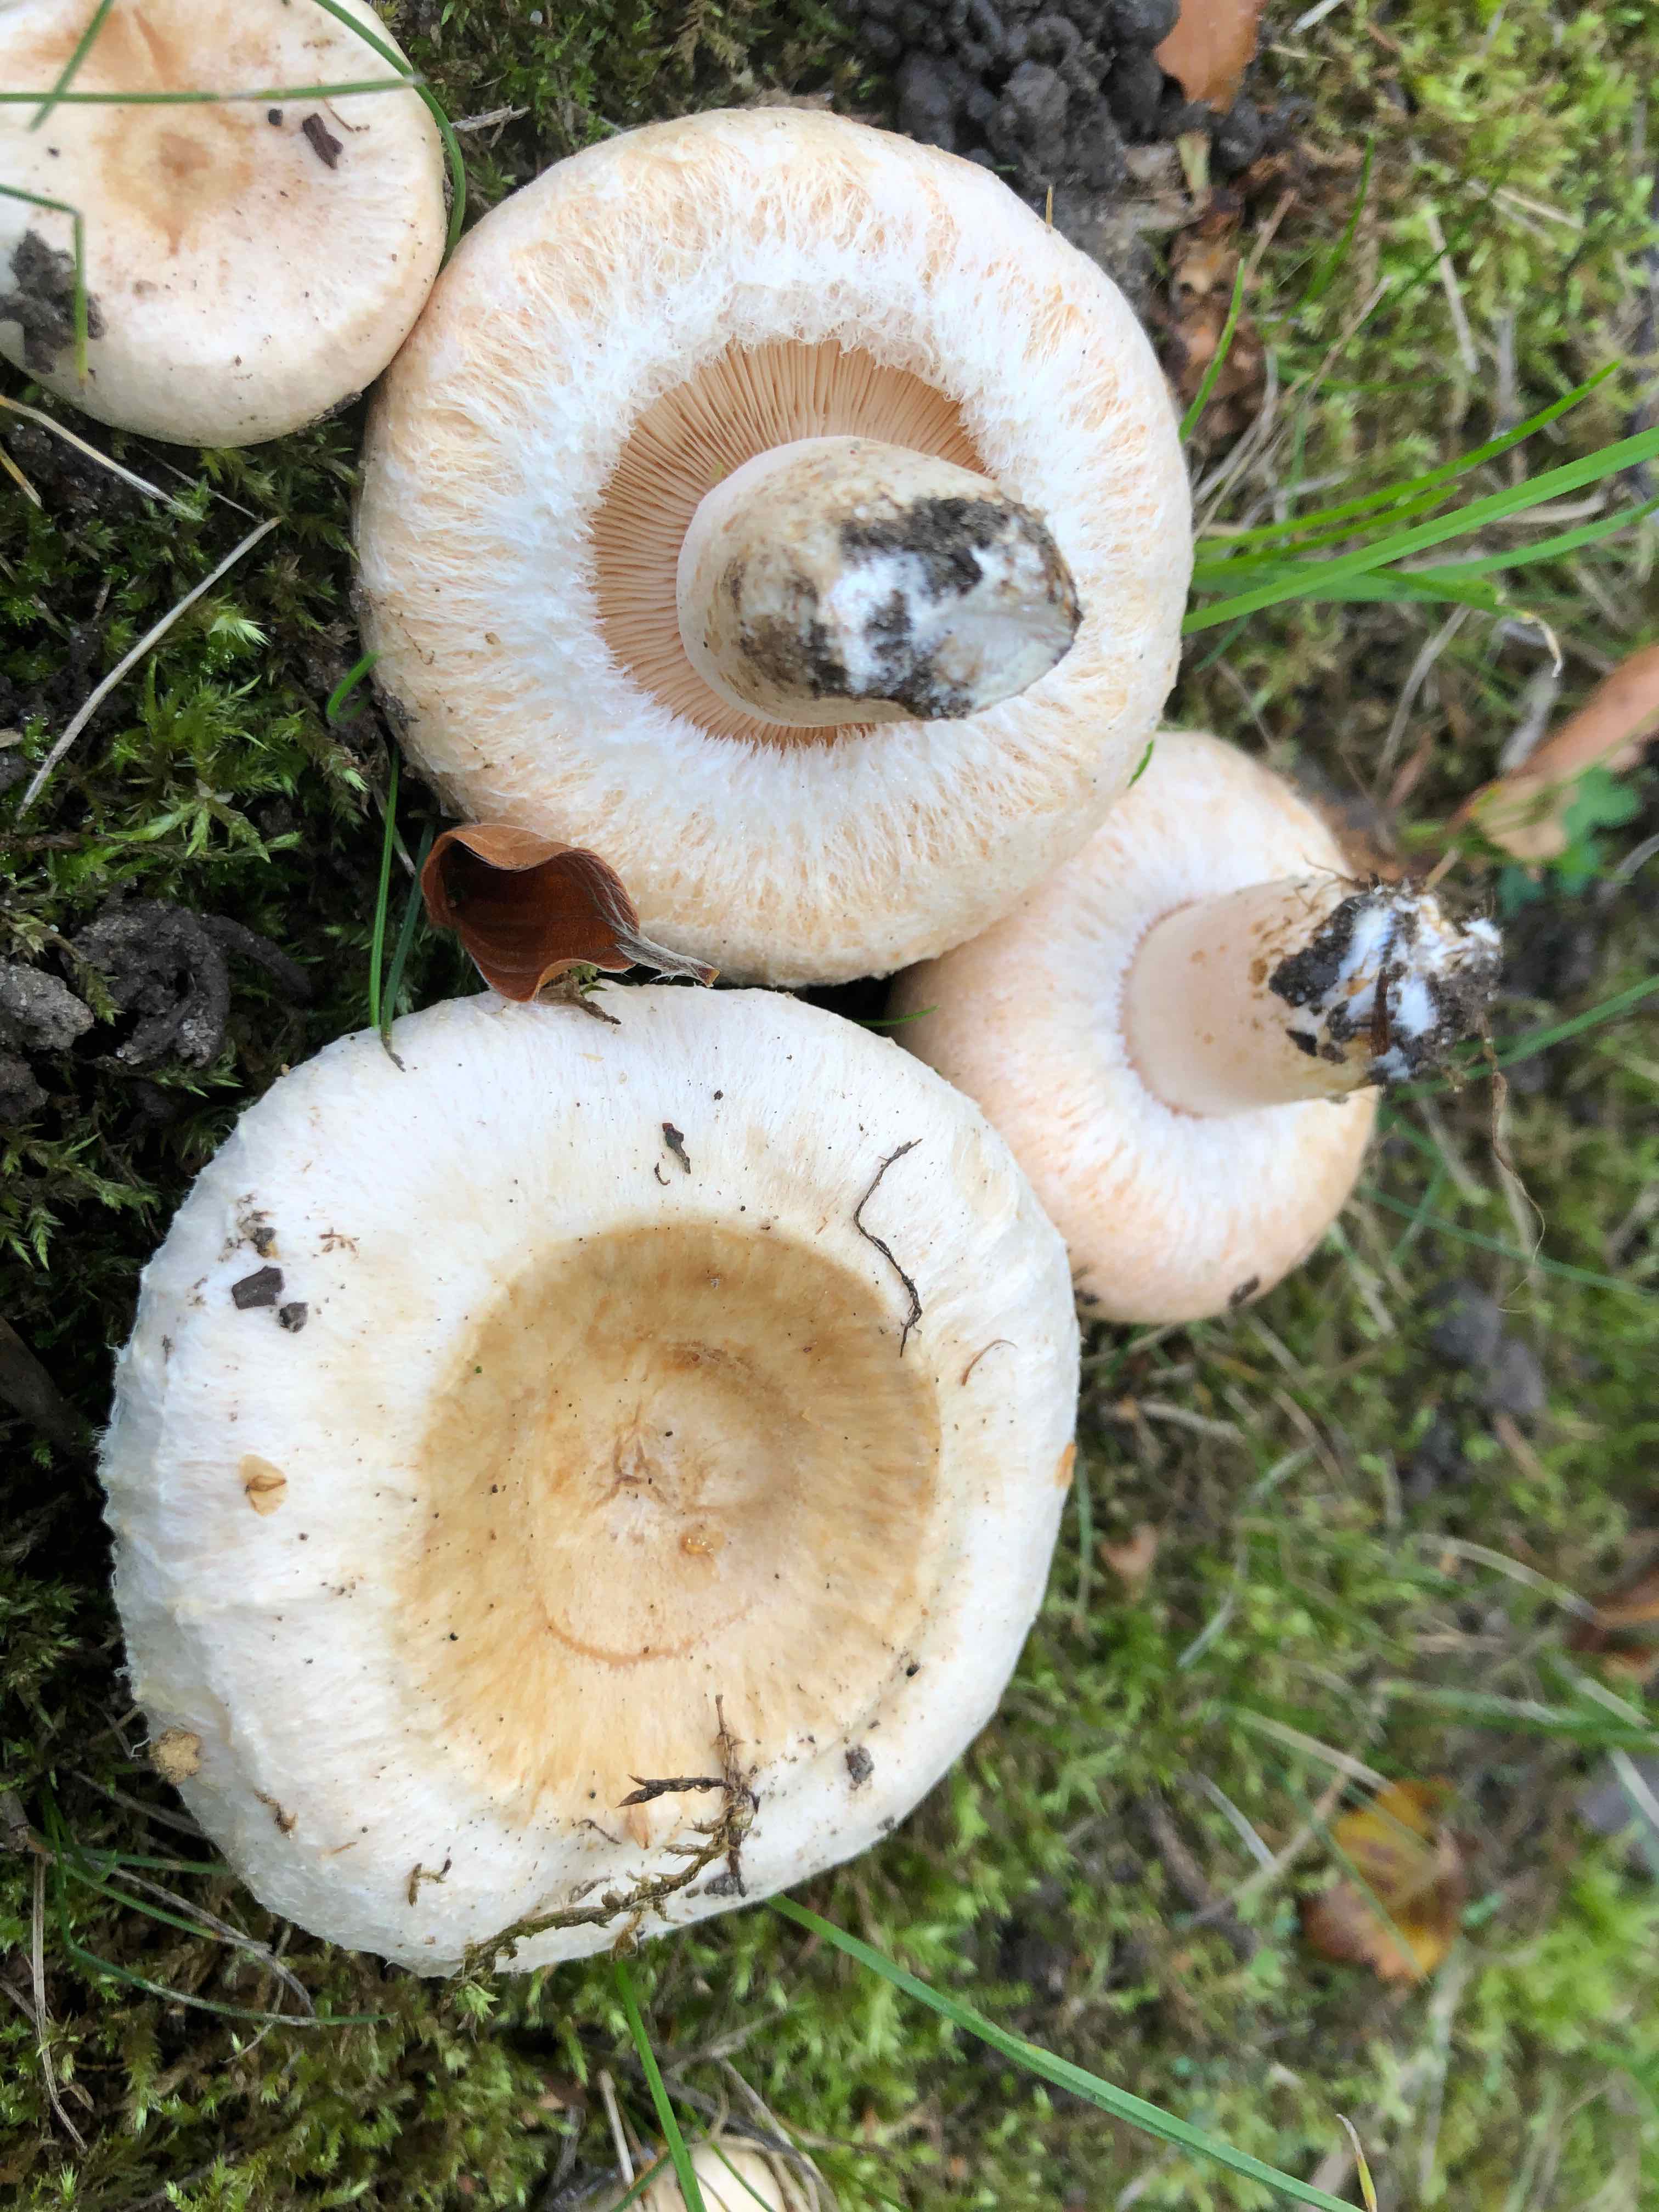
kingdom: Fungi
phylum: Basidiomycota
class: Agaricomycetes
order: Russulales
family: Russulaceae
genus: Lactarius
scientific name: Lactarius pubescens
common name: dunet mælkehat
